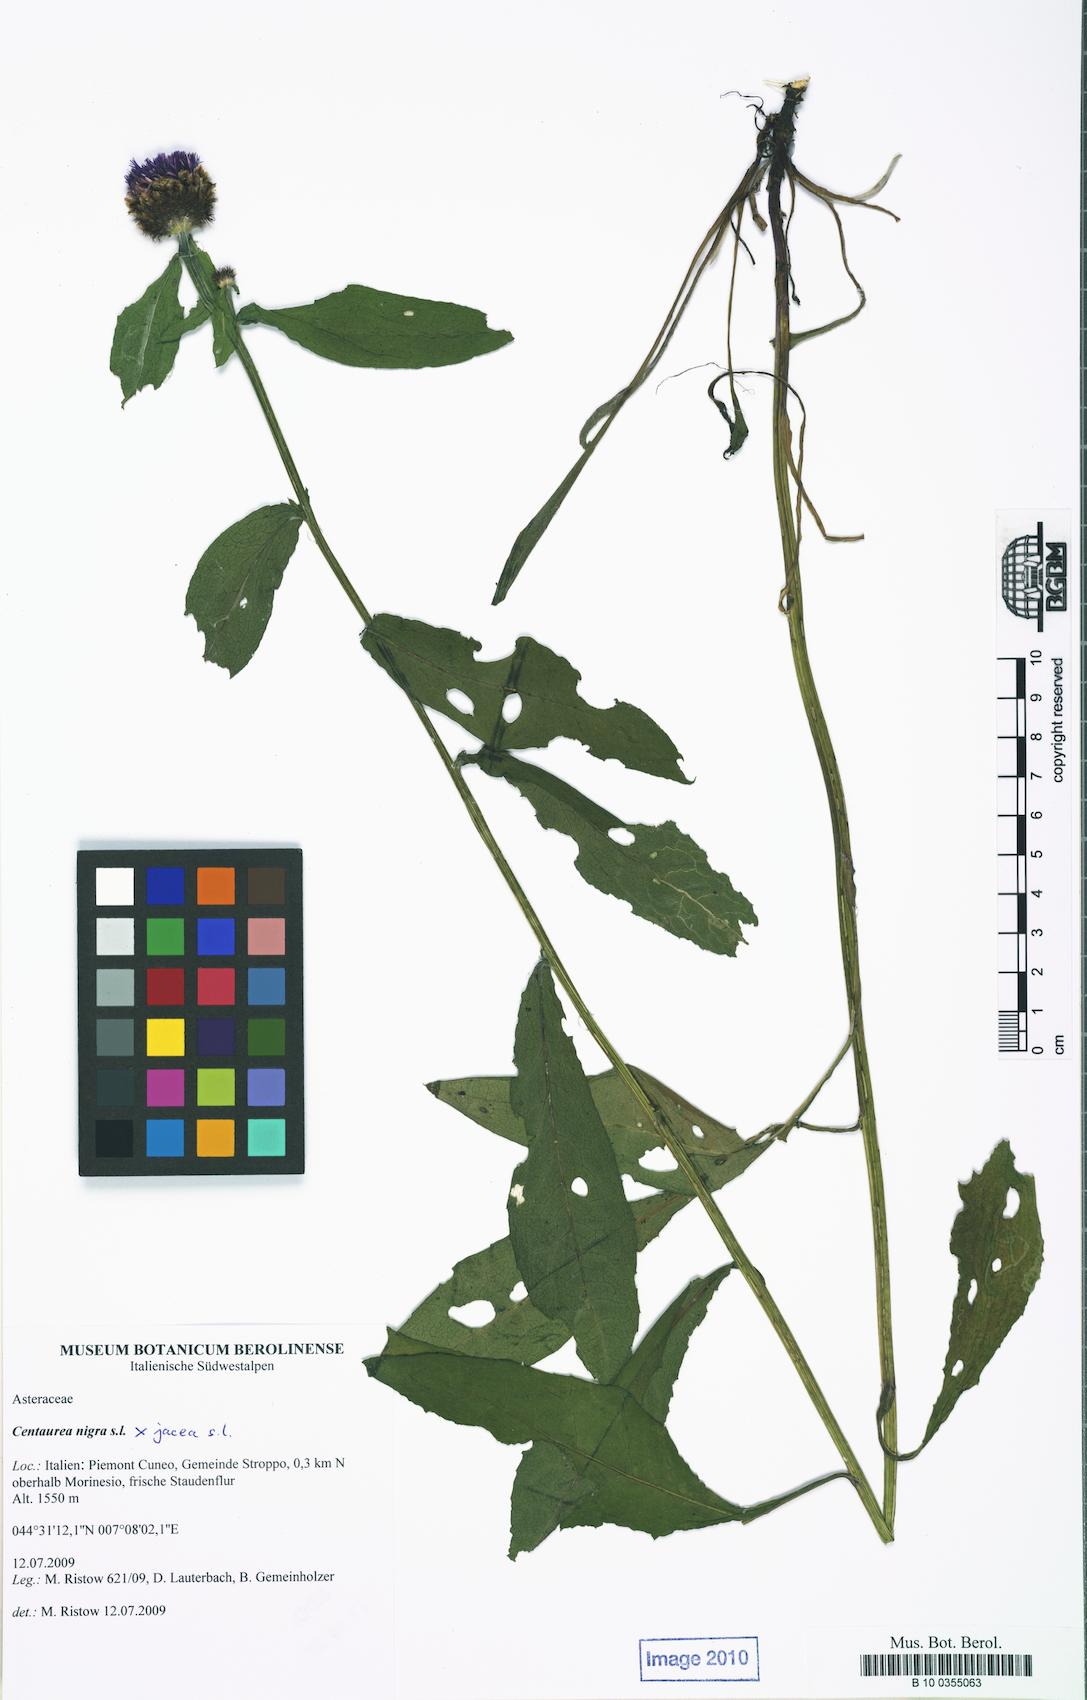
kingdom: Plantae
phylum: Tracheophyta
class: Magnoliopsida
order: Asterales
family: Asteraceae
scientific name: Asteraceae
